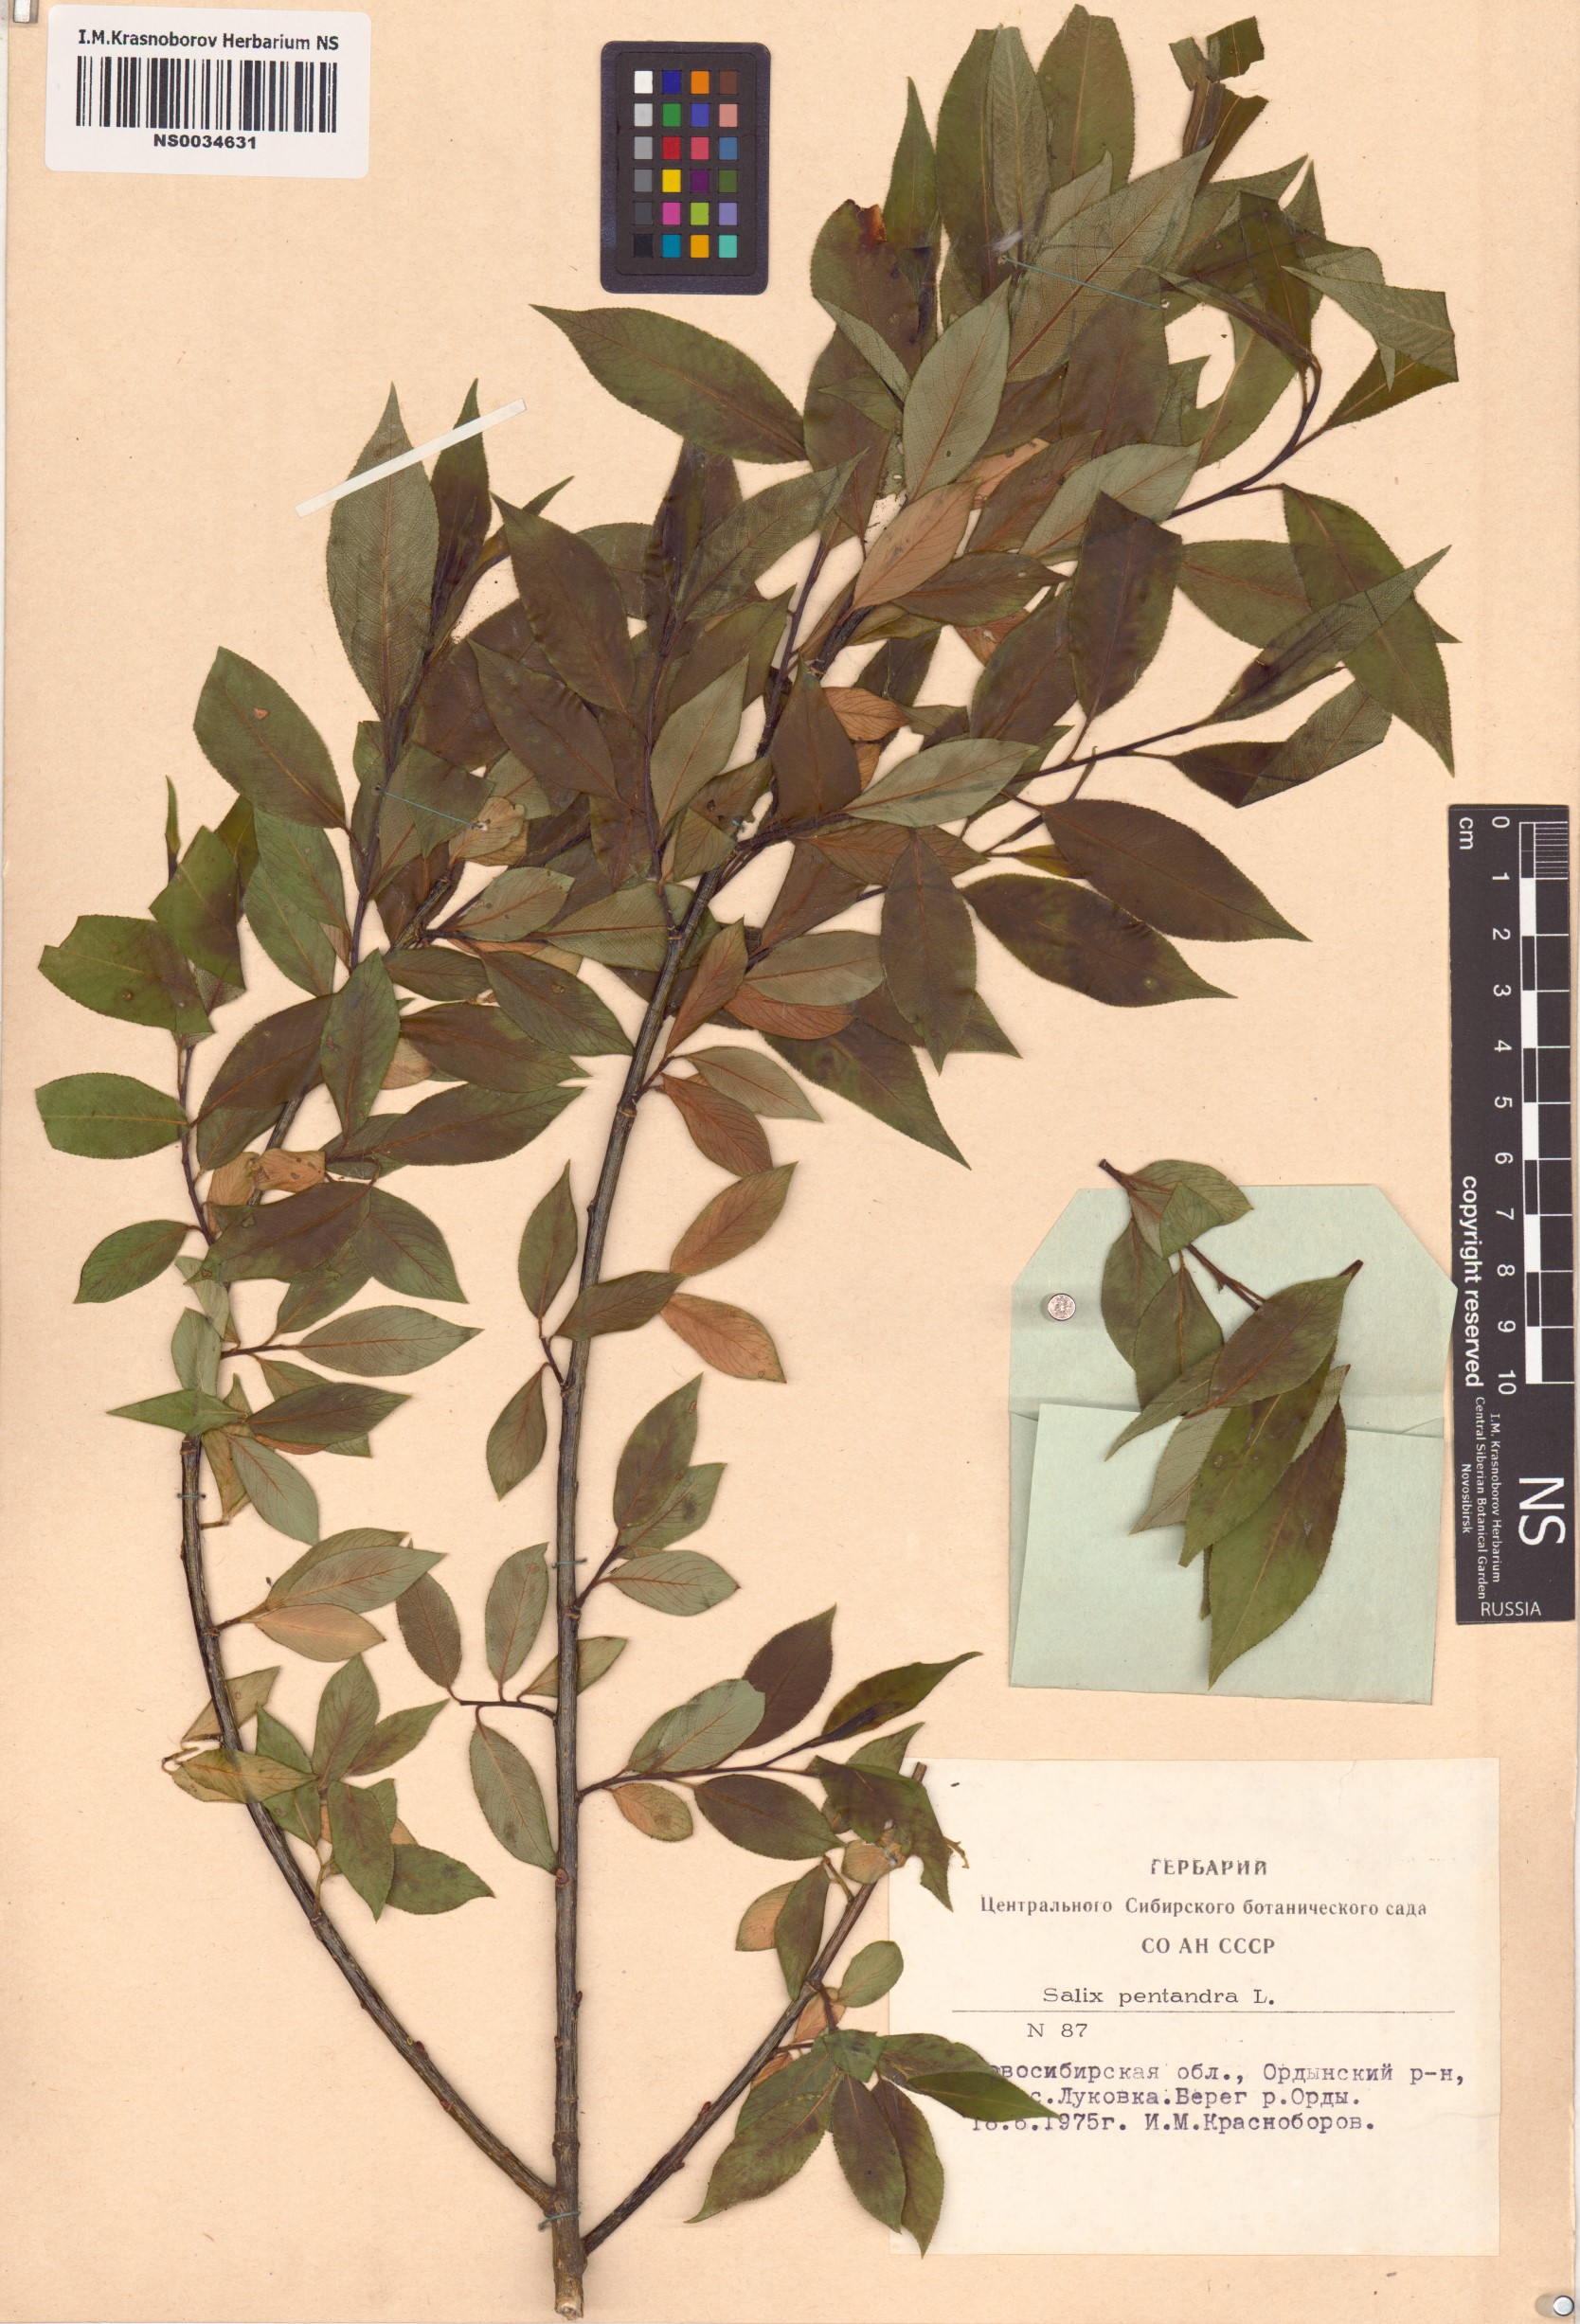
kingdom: Plantae
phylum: Tracheophyta
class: Magnoliopsida
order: Malpighiales
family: Salicaceae
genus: Salix
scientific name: Salix pentandra
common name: Bay willow
